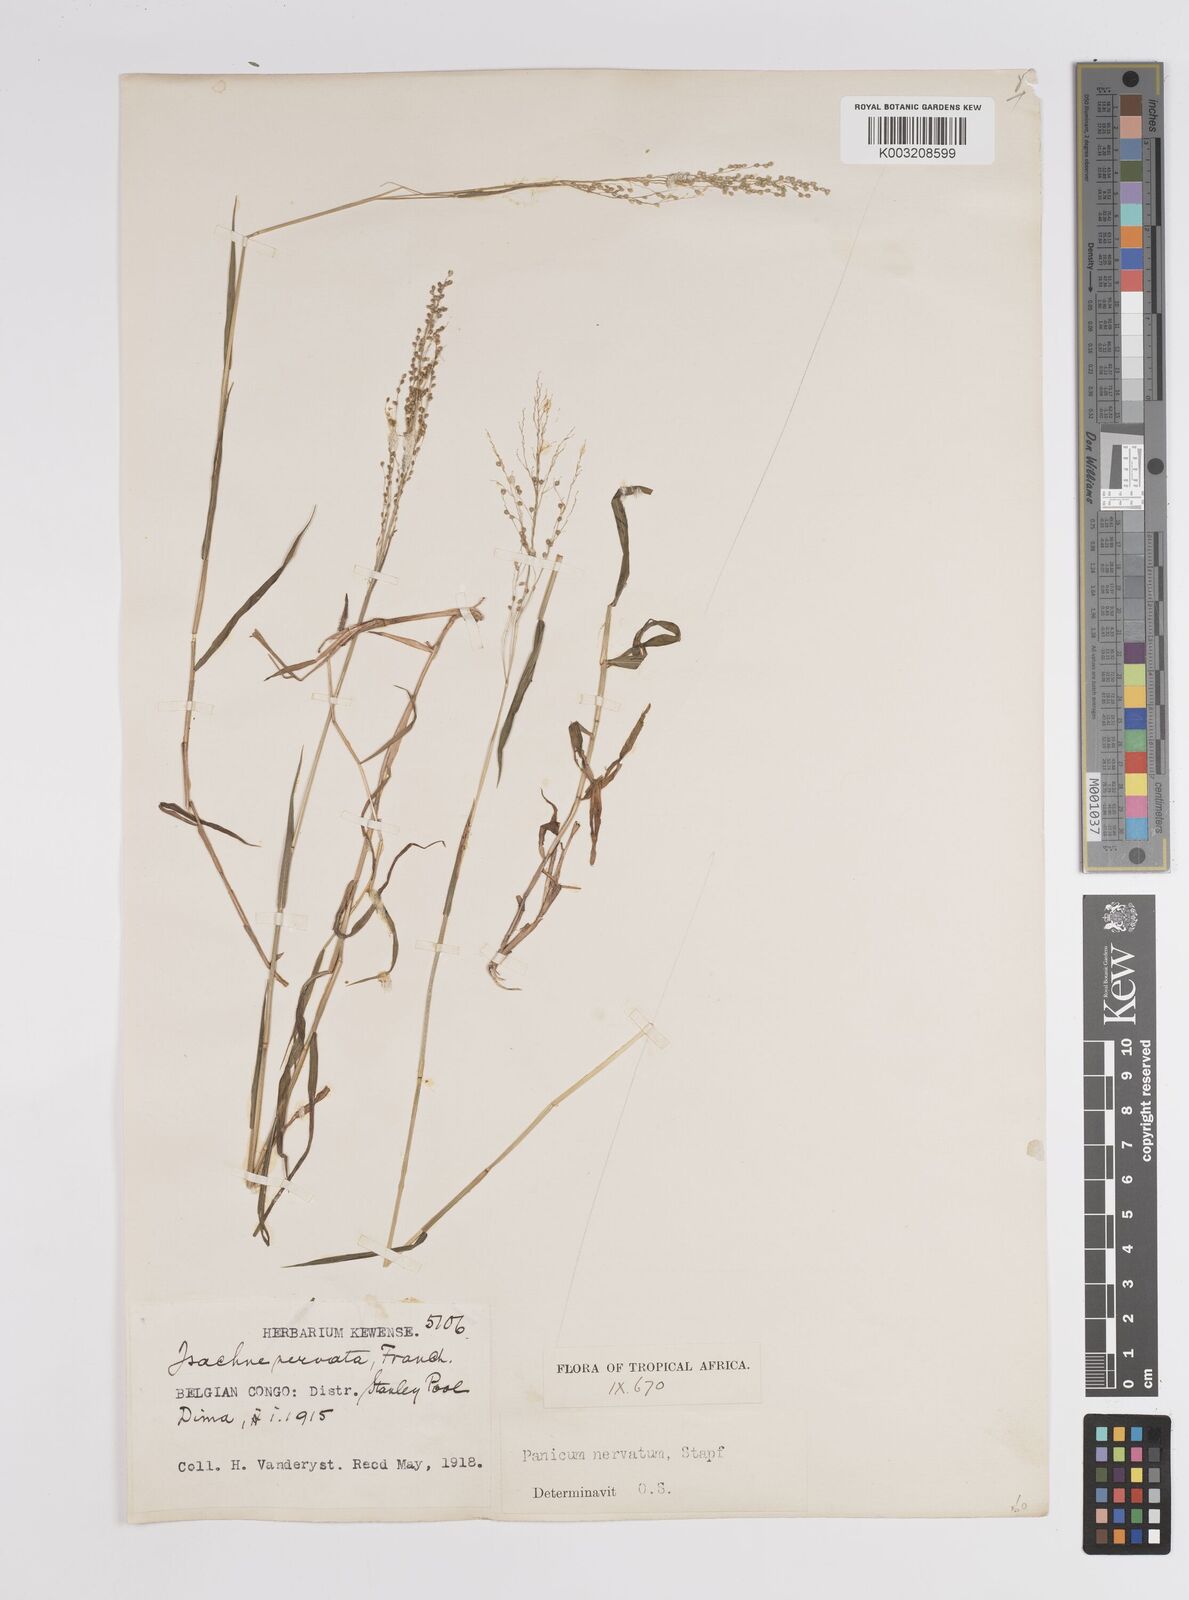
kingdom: Plantae
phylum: Tracheophyta
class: Liliopsida
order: Poales
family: Poaceae
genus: Trichanthecium
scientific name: Trichanthecium nervatum
